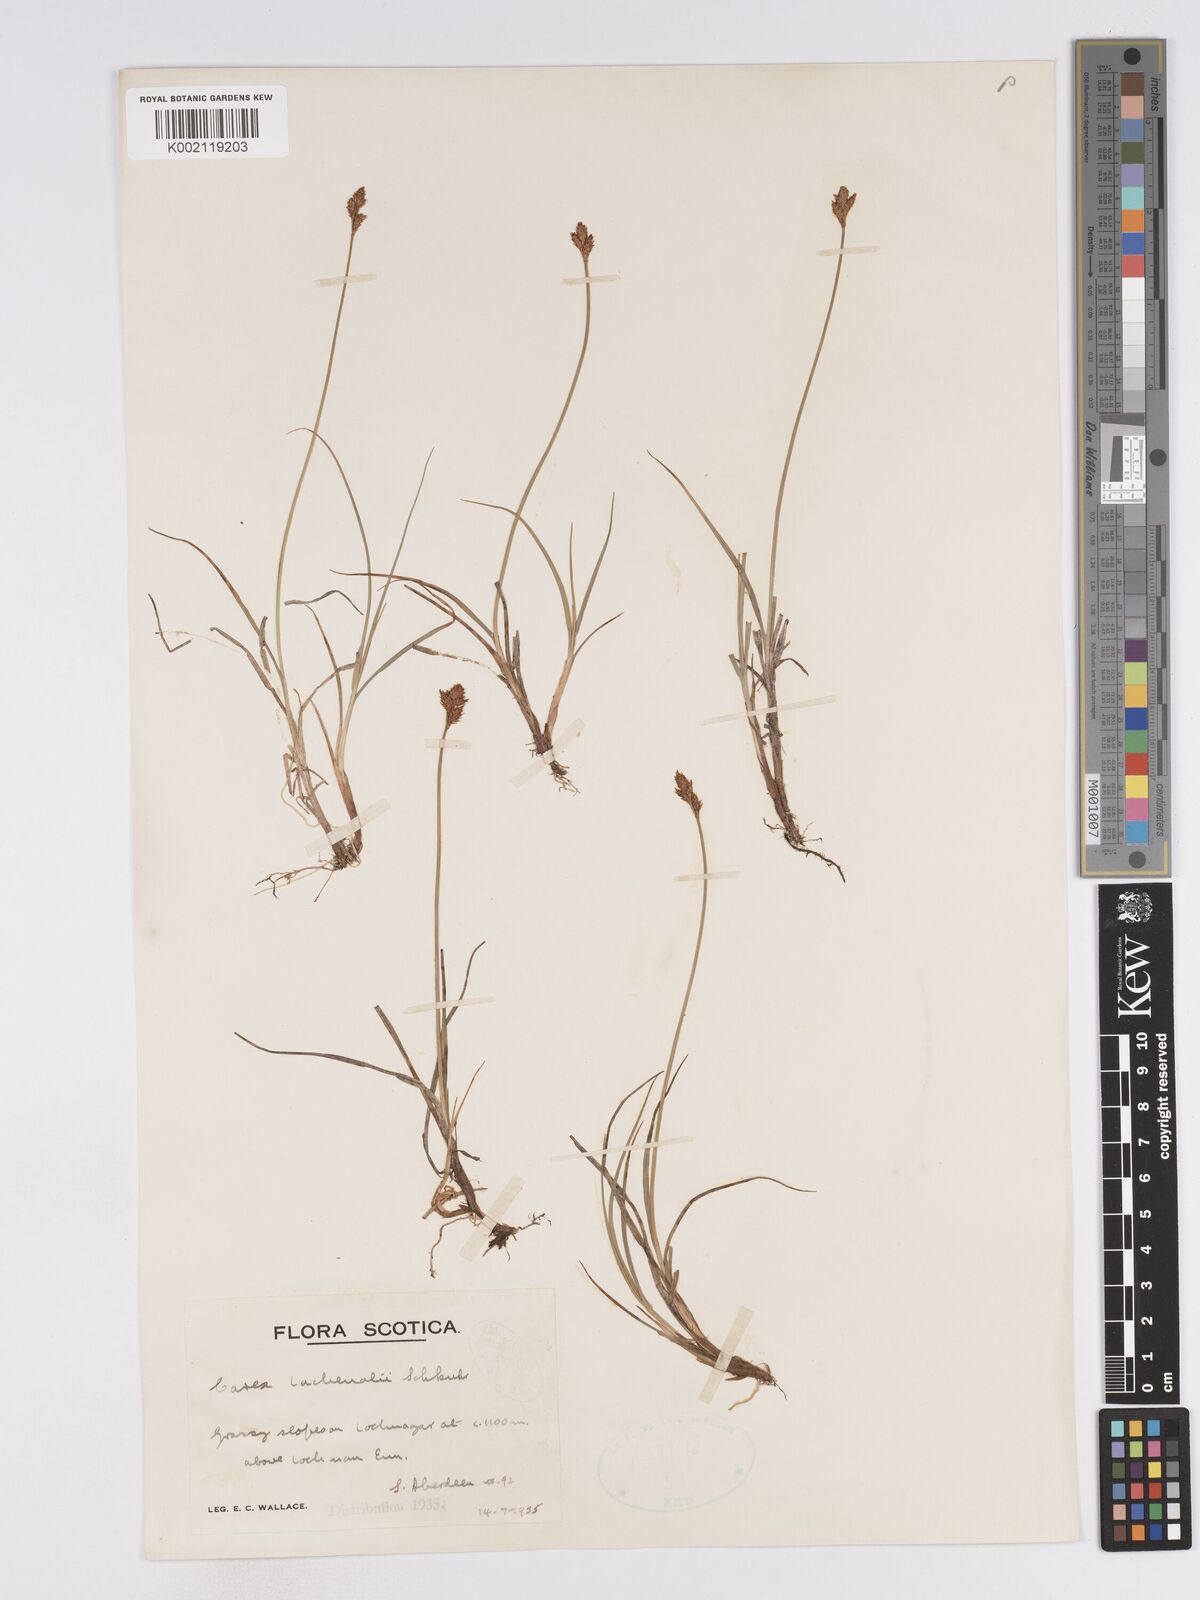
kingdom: Plantae
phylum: Tracheophyta
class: Liliopsida
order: Poales
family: Cyperaceae
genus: Carex
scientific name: Carex lachenalii
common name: Hare's-foot sedge
